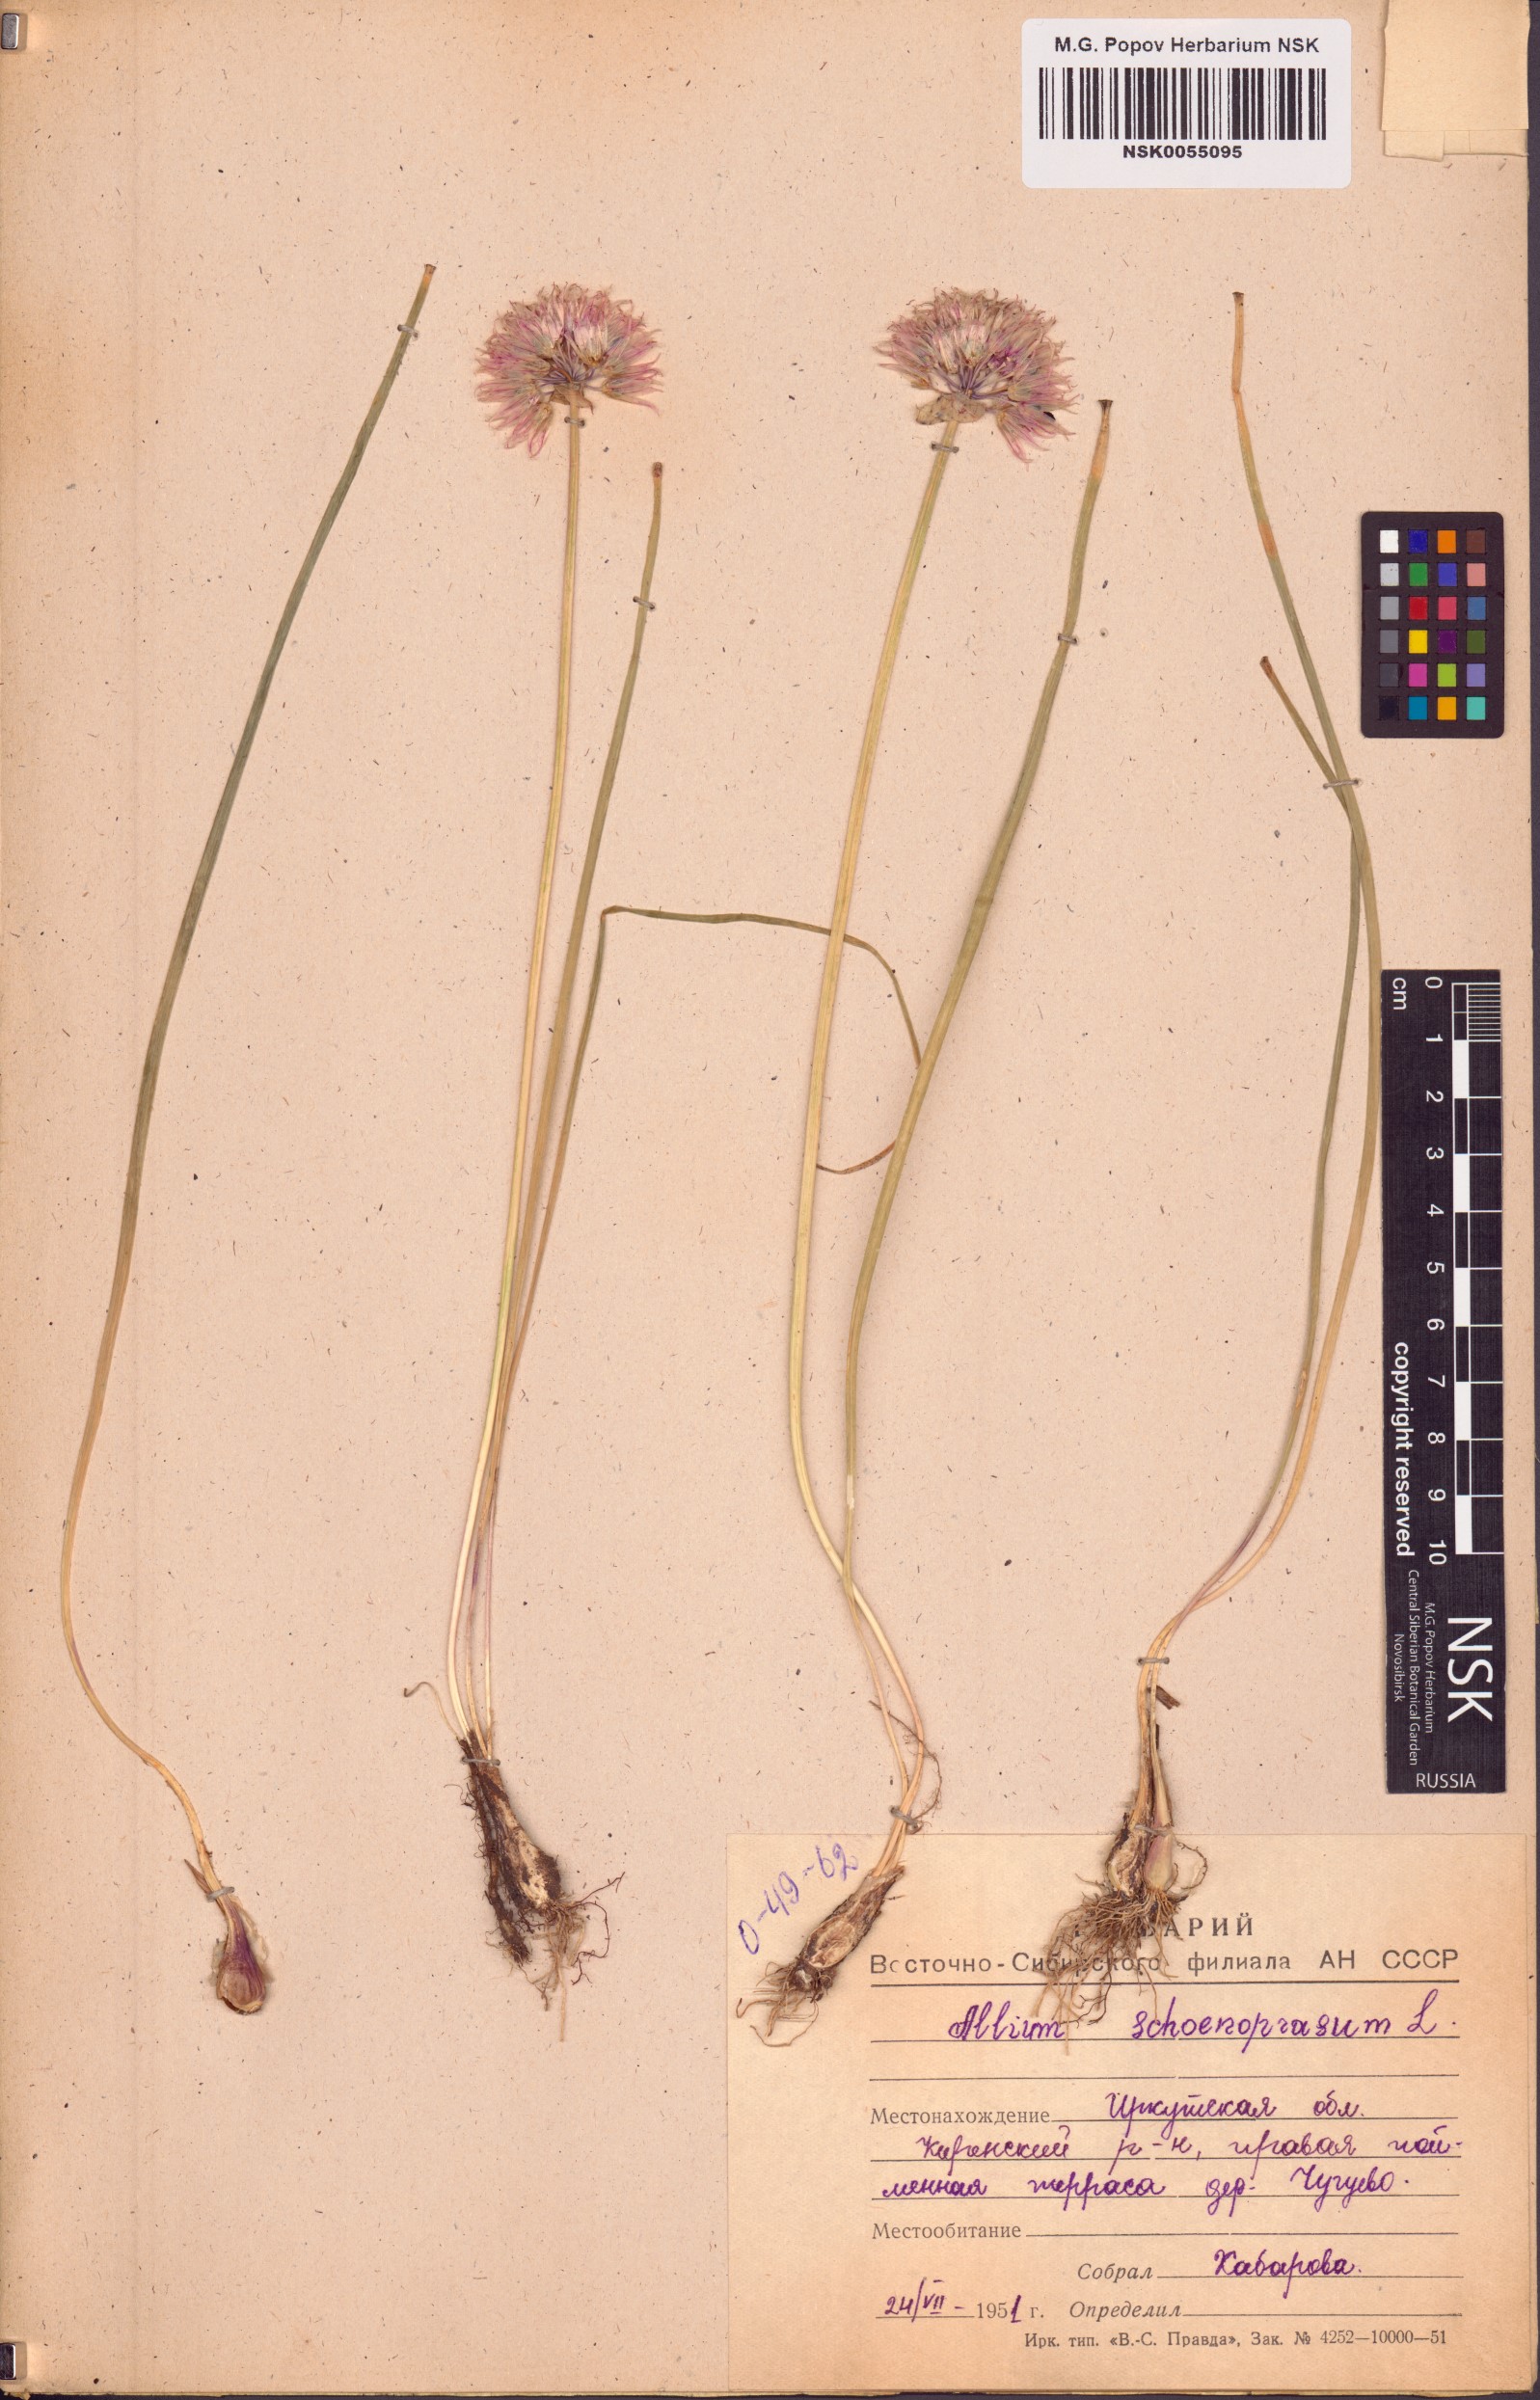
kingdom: Plantae
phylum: Tracheophyta
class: Liliopsida
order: Asparagales
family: Amaryllidaceae
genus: Allium
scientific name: Allium schoenoprasum
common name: Chives
